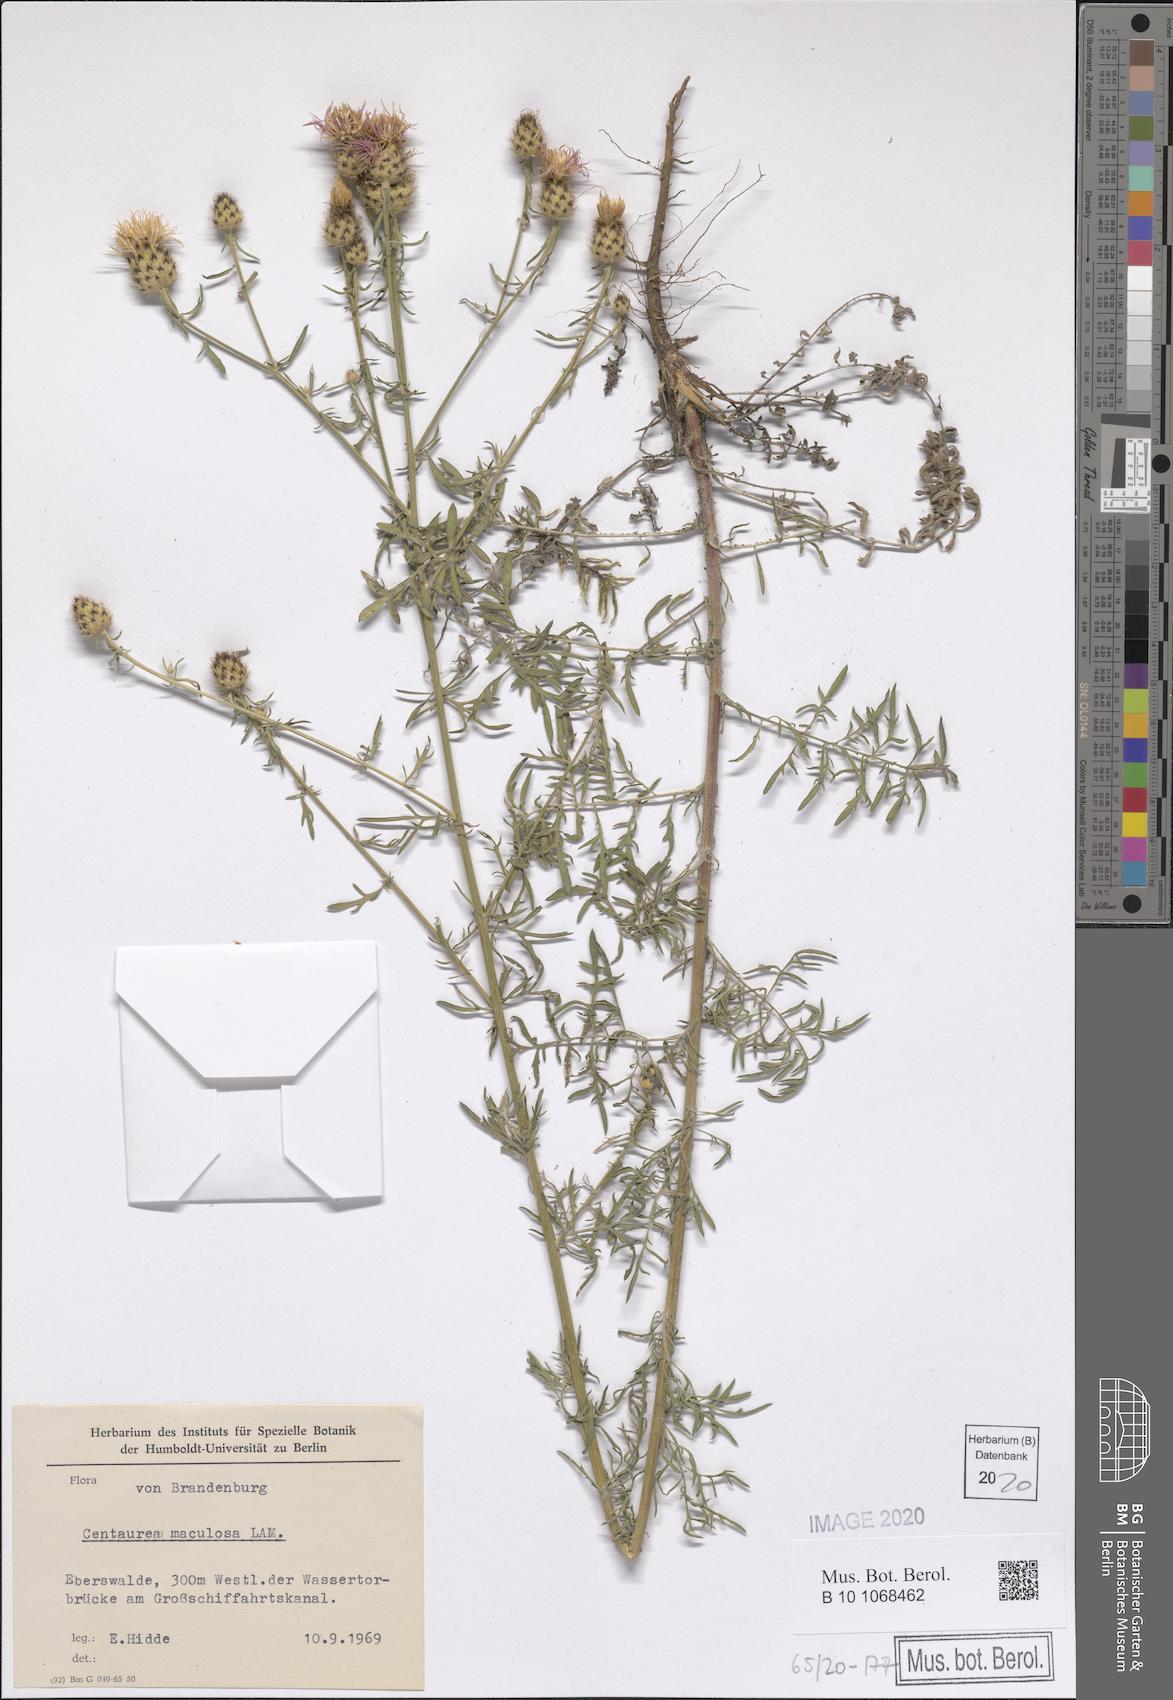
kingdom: Plantae
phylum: Tracheophyta
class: Magnoliopsida
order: Asterales
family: Asteraceae
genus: Centaurea
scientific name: Centaurea stoebe
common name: Spotted knapweed
